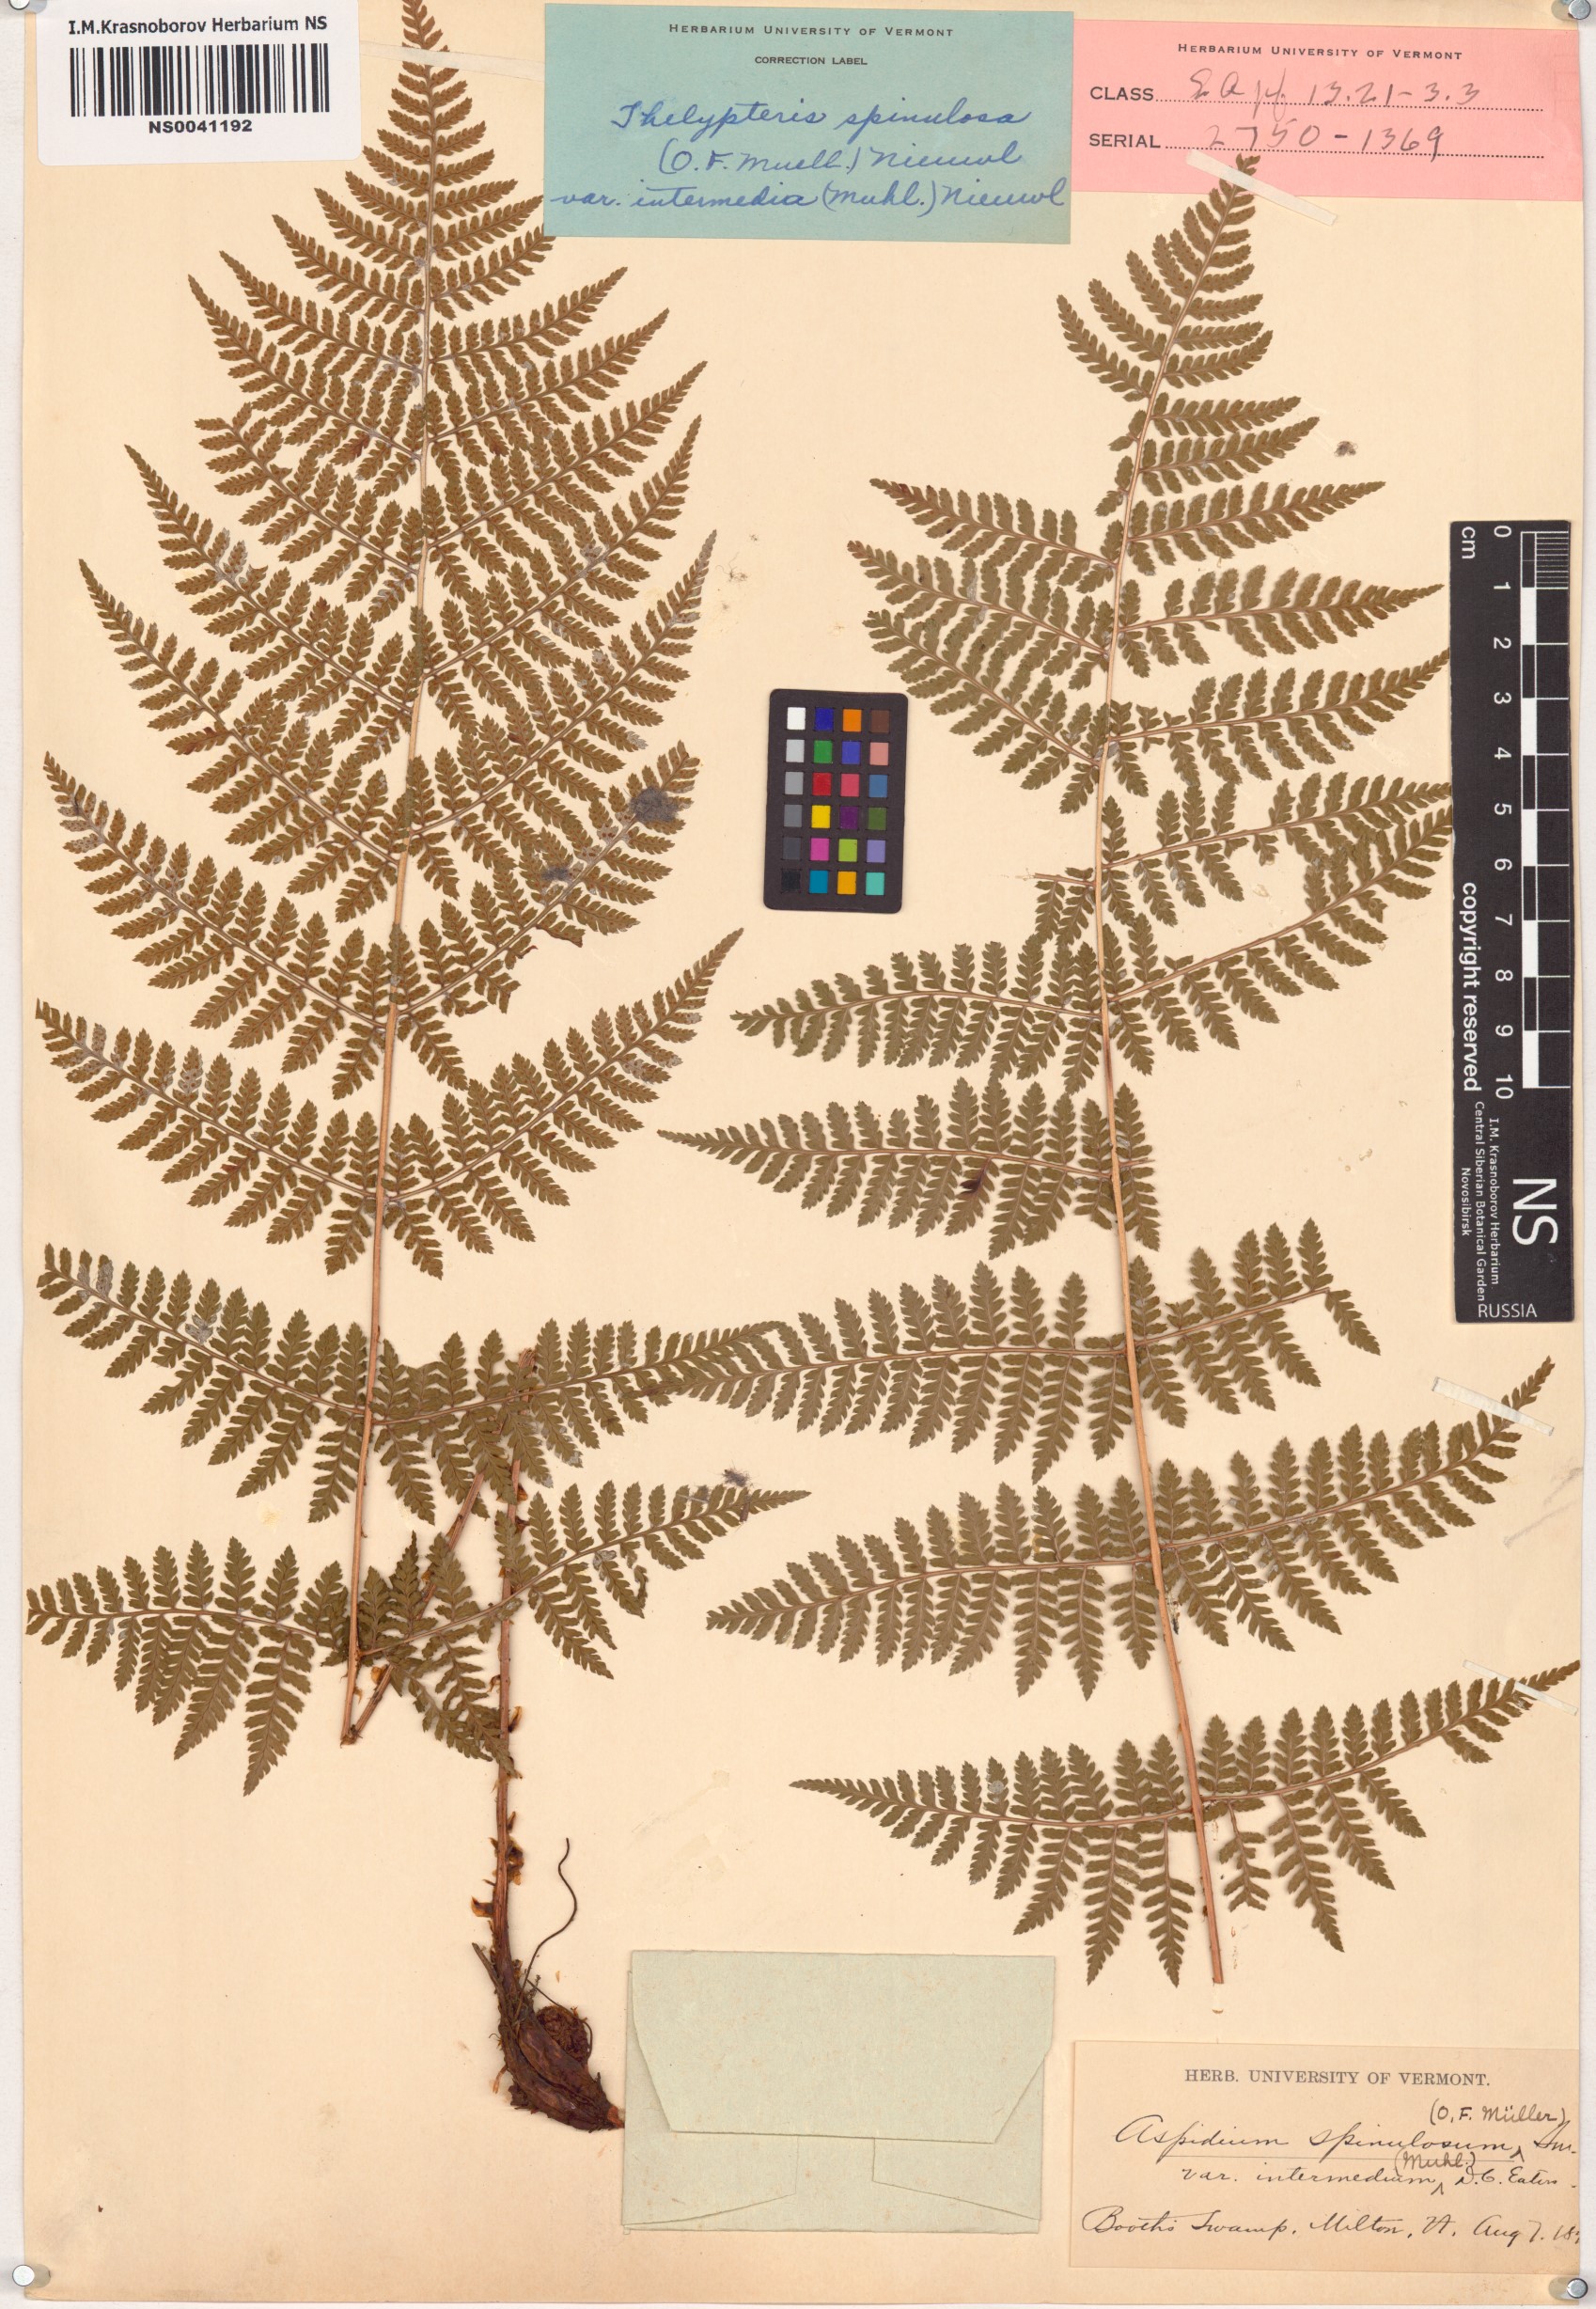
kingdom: Plantae
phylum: Tracheophyta
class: Polypodiopsida
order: Polypodiales
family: Dryopteridaceae
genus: Dryopteris
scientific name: Dryopteris carthusiana
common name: Narrow buckler-fern
